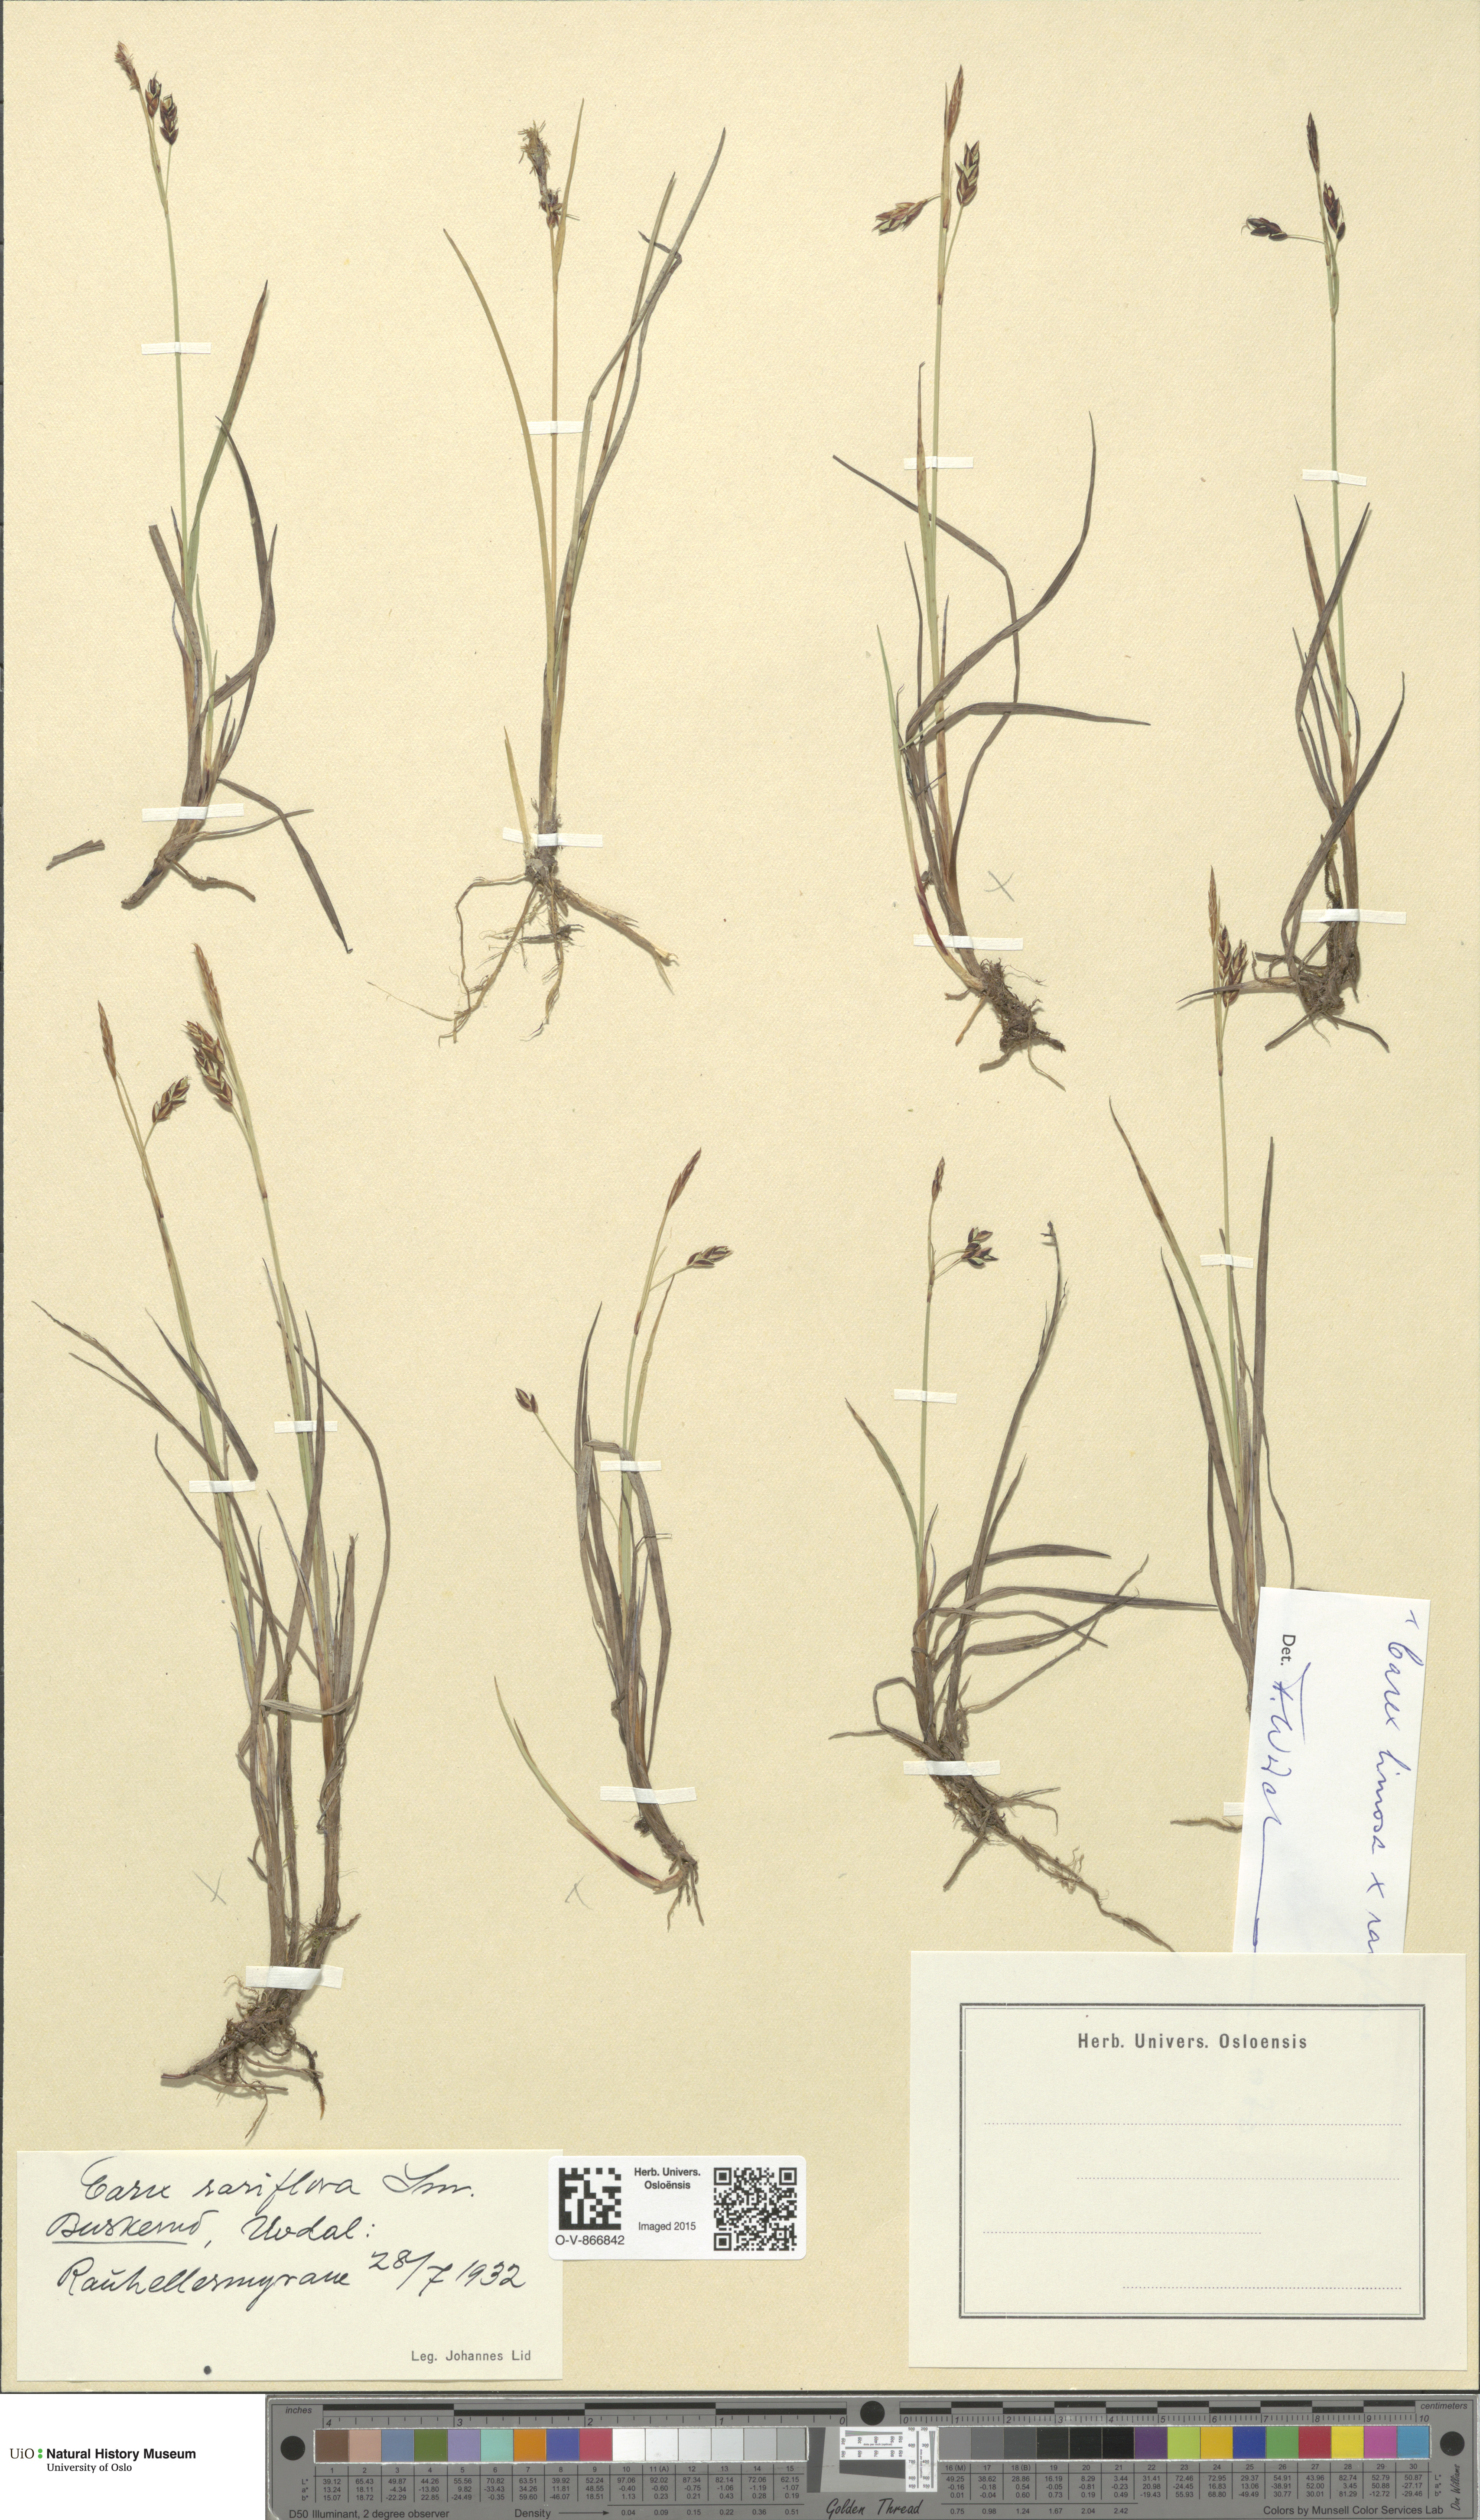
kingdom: Plantae
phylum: Tracheophyta
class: Liliopsida
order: Poales
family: Cyperaceae
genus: Carex
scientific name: Carex rariflora
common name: Loose-flowered alpine sedge
